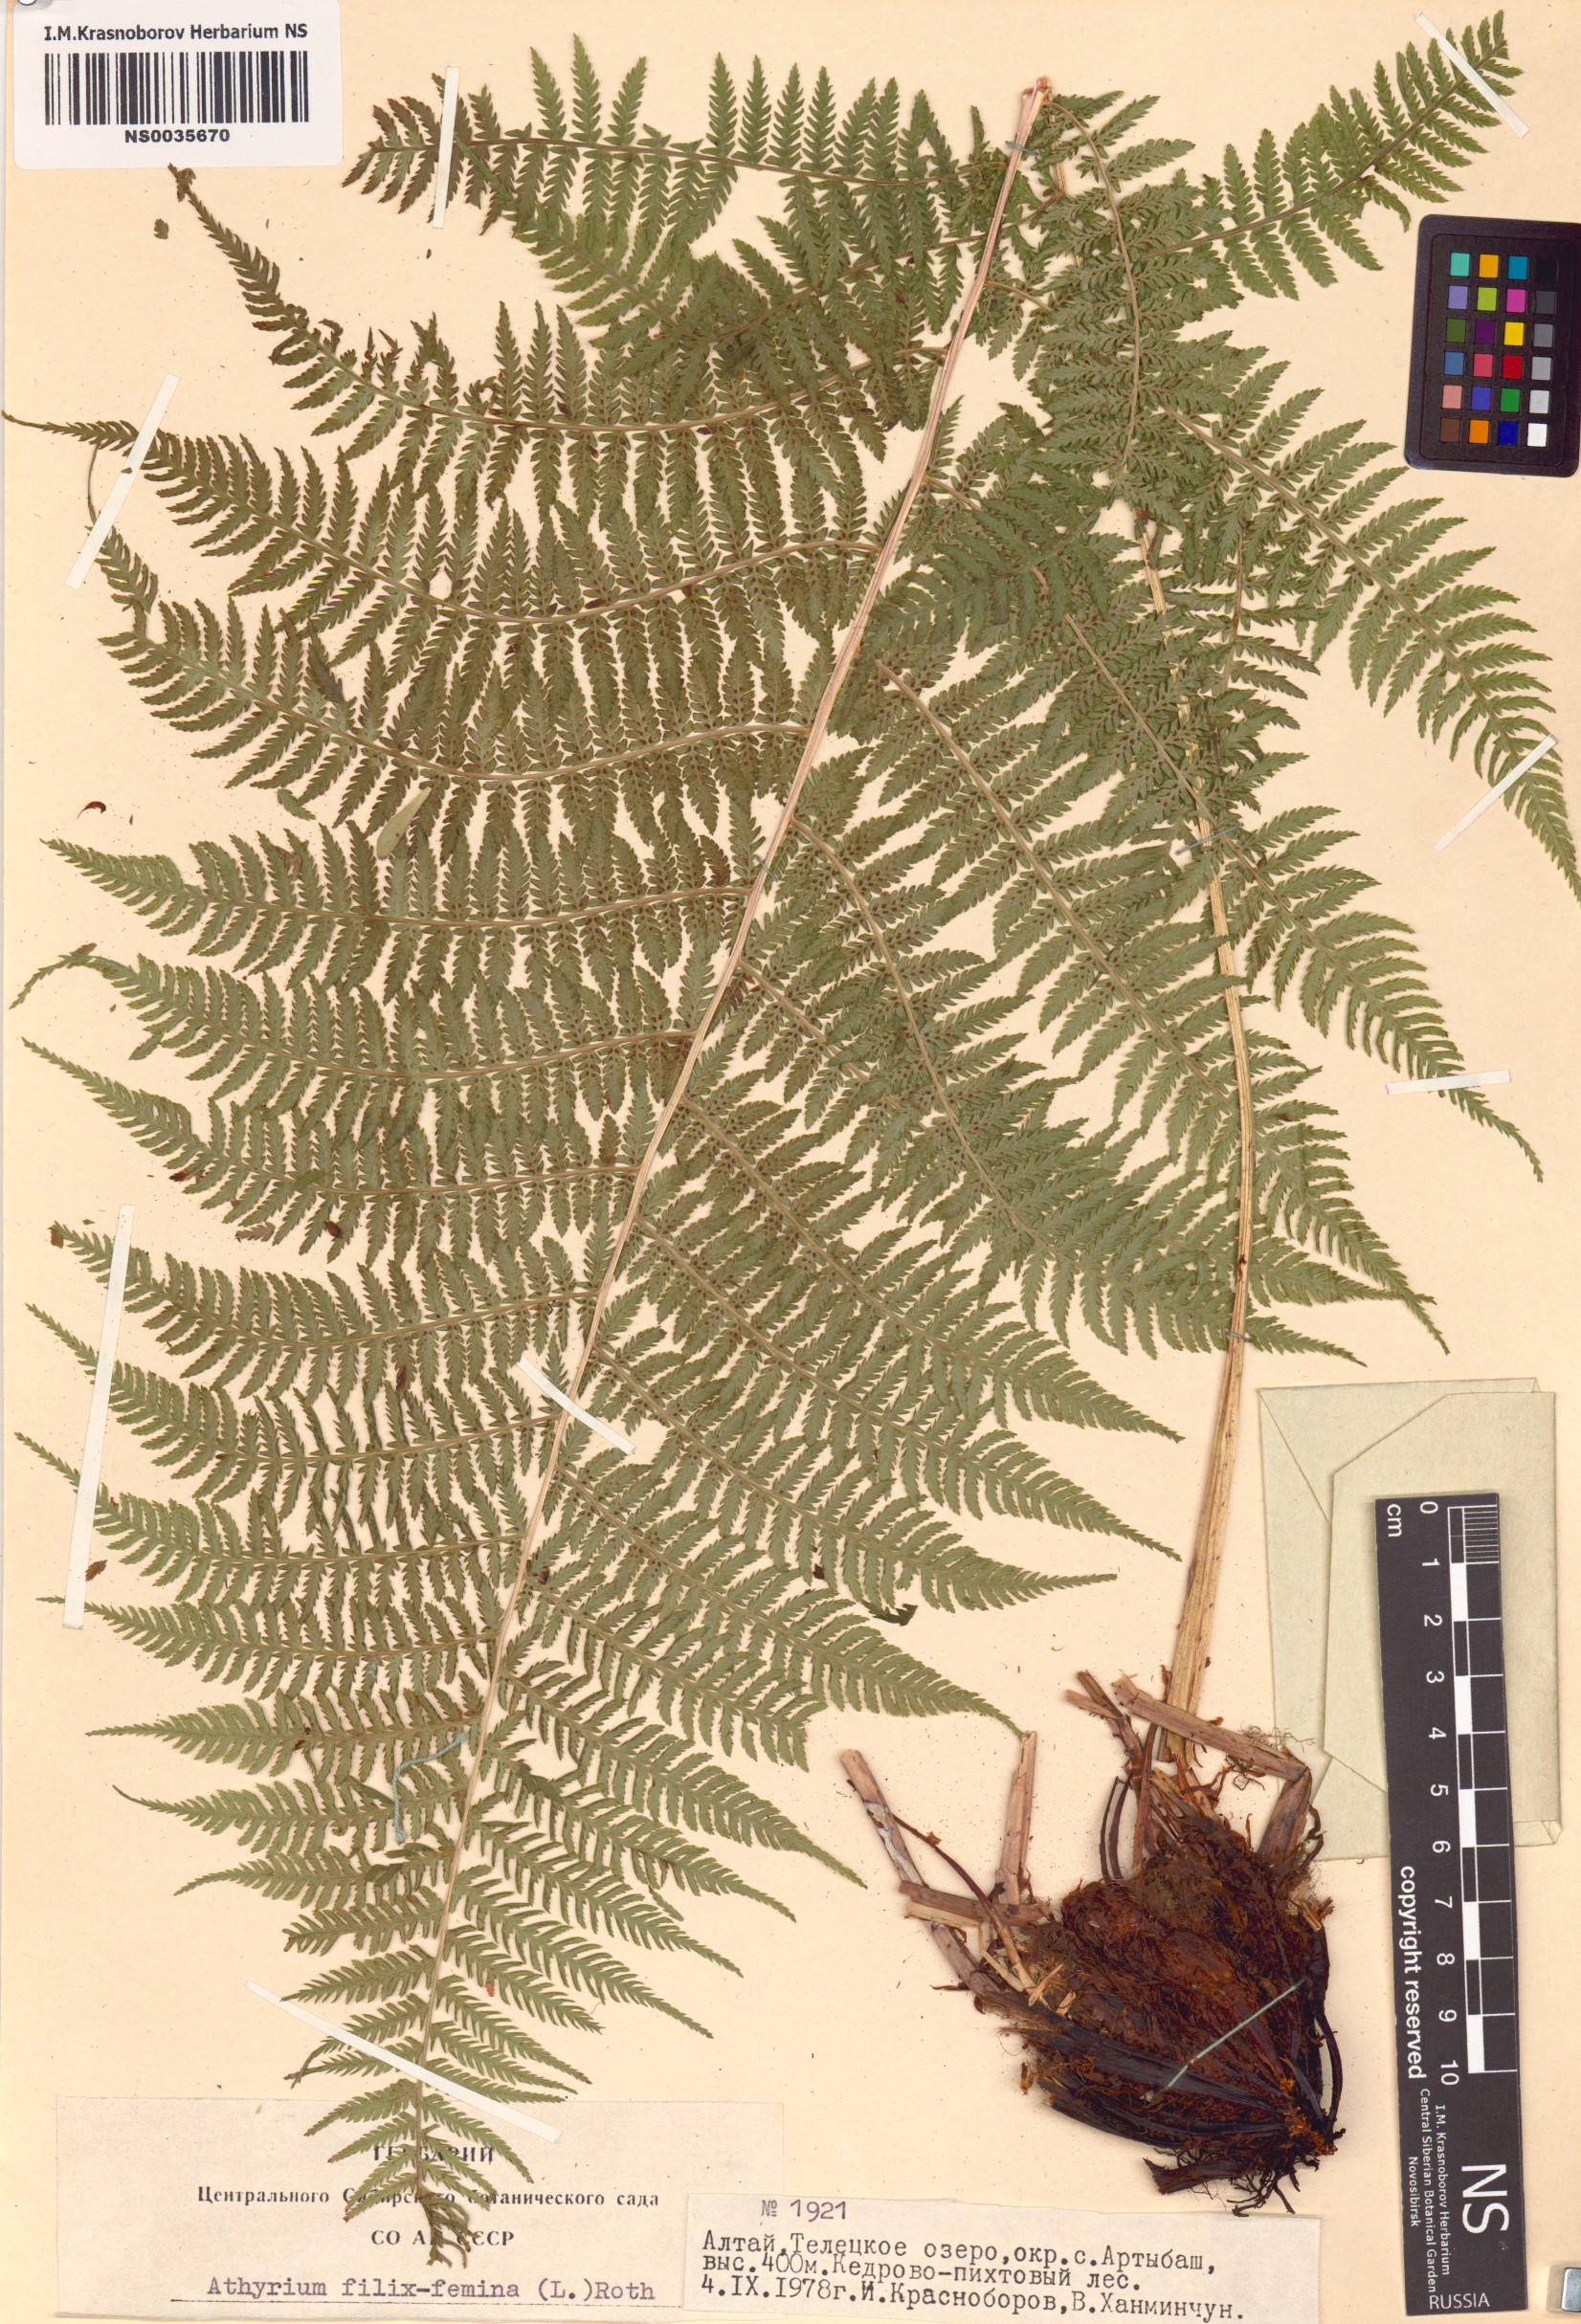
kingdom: Plantae
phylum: Tracheophyta
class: Polypodiopsida
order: Polypodiales
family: Athyriaceae
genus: Athyrium
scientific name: Athyrium filix-femina
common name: Lady fern
